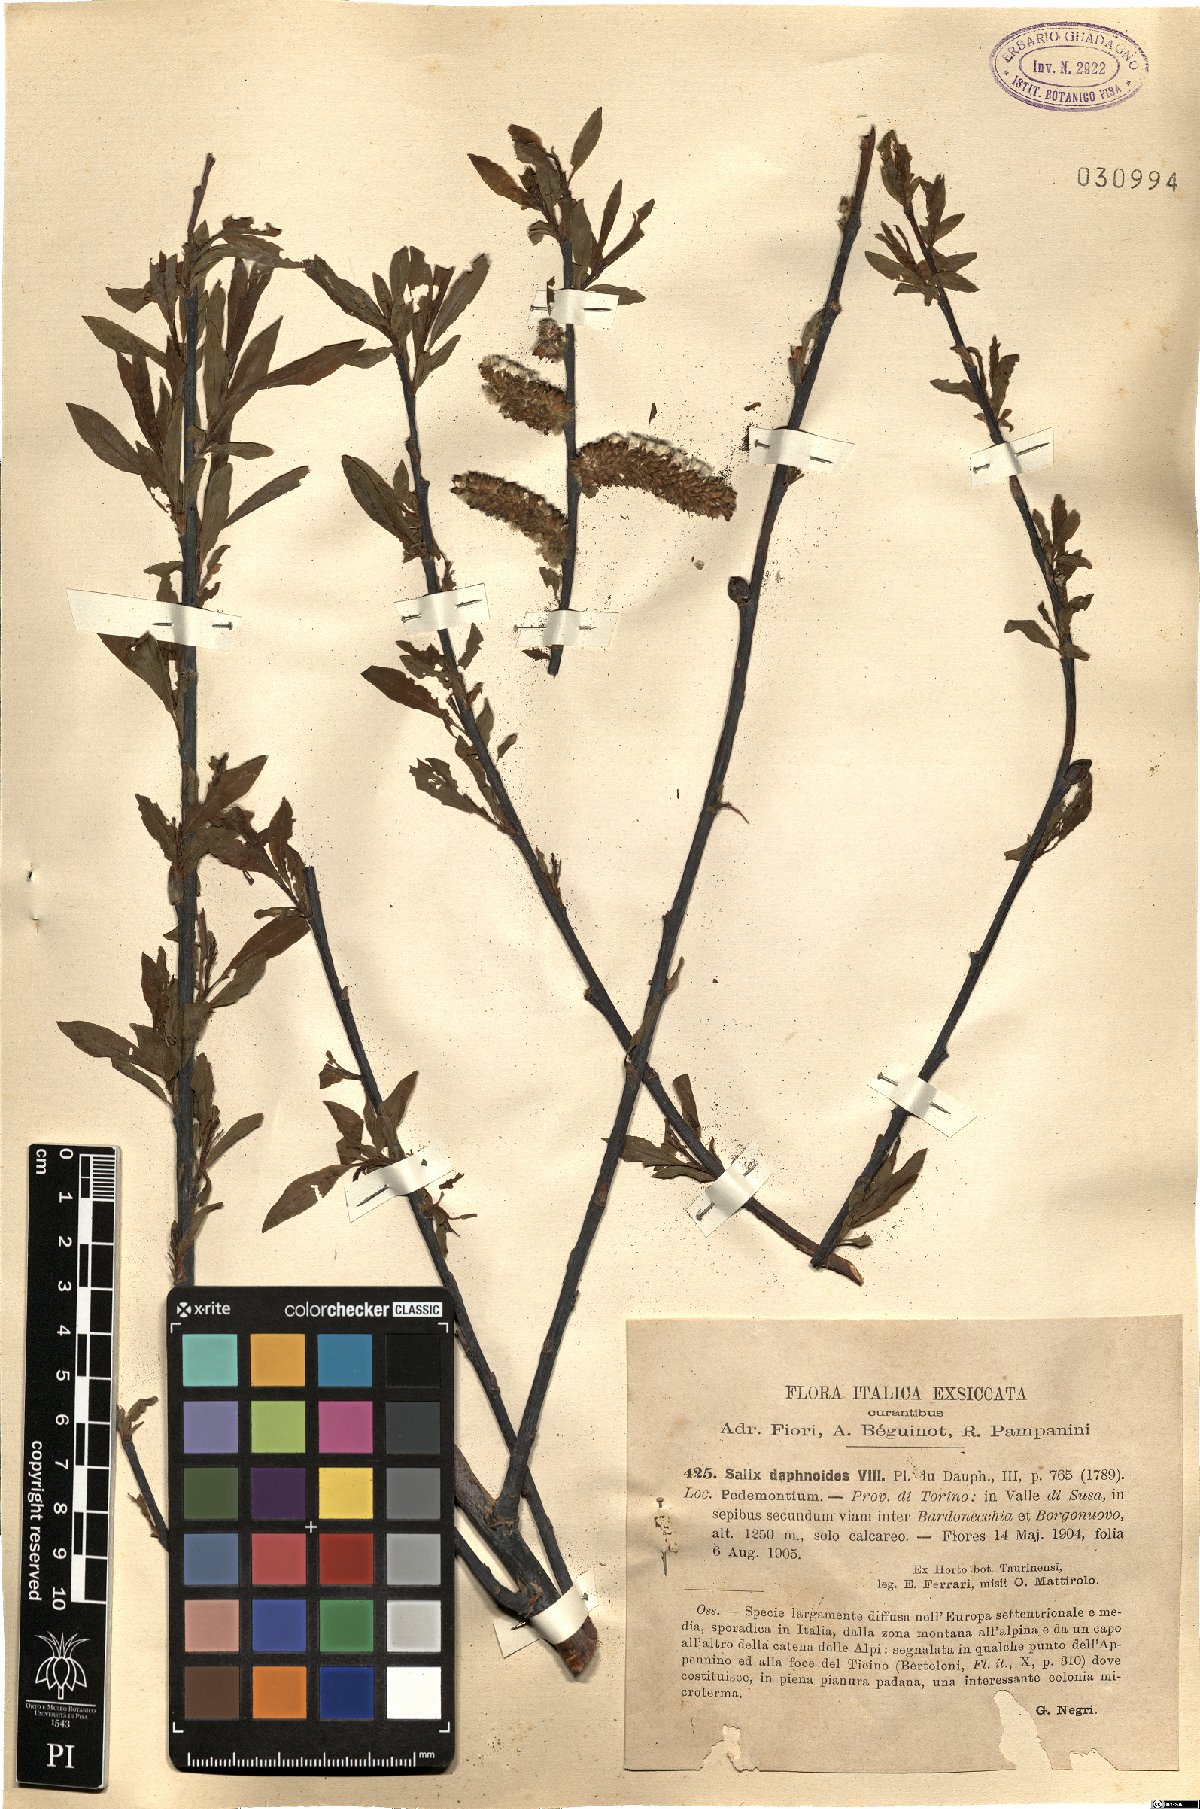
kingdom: Plantae
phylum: Tracheophyta
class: Magnoliopsida
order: Malpighiales
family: Salicaceae
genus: Salix
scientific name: Salix daphnoides
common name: European violet-willow
